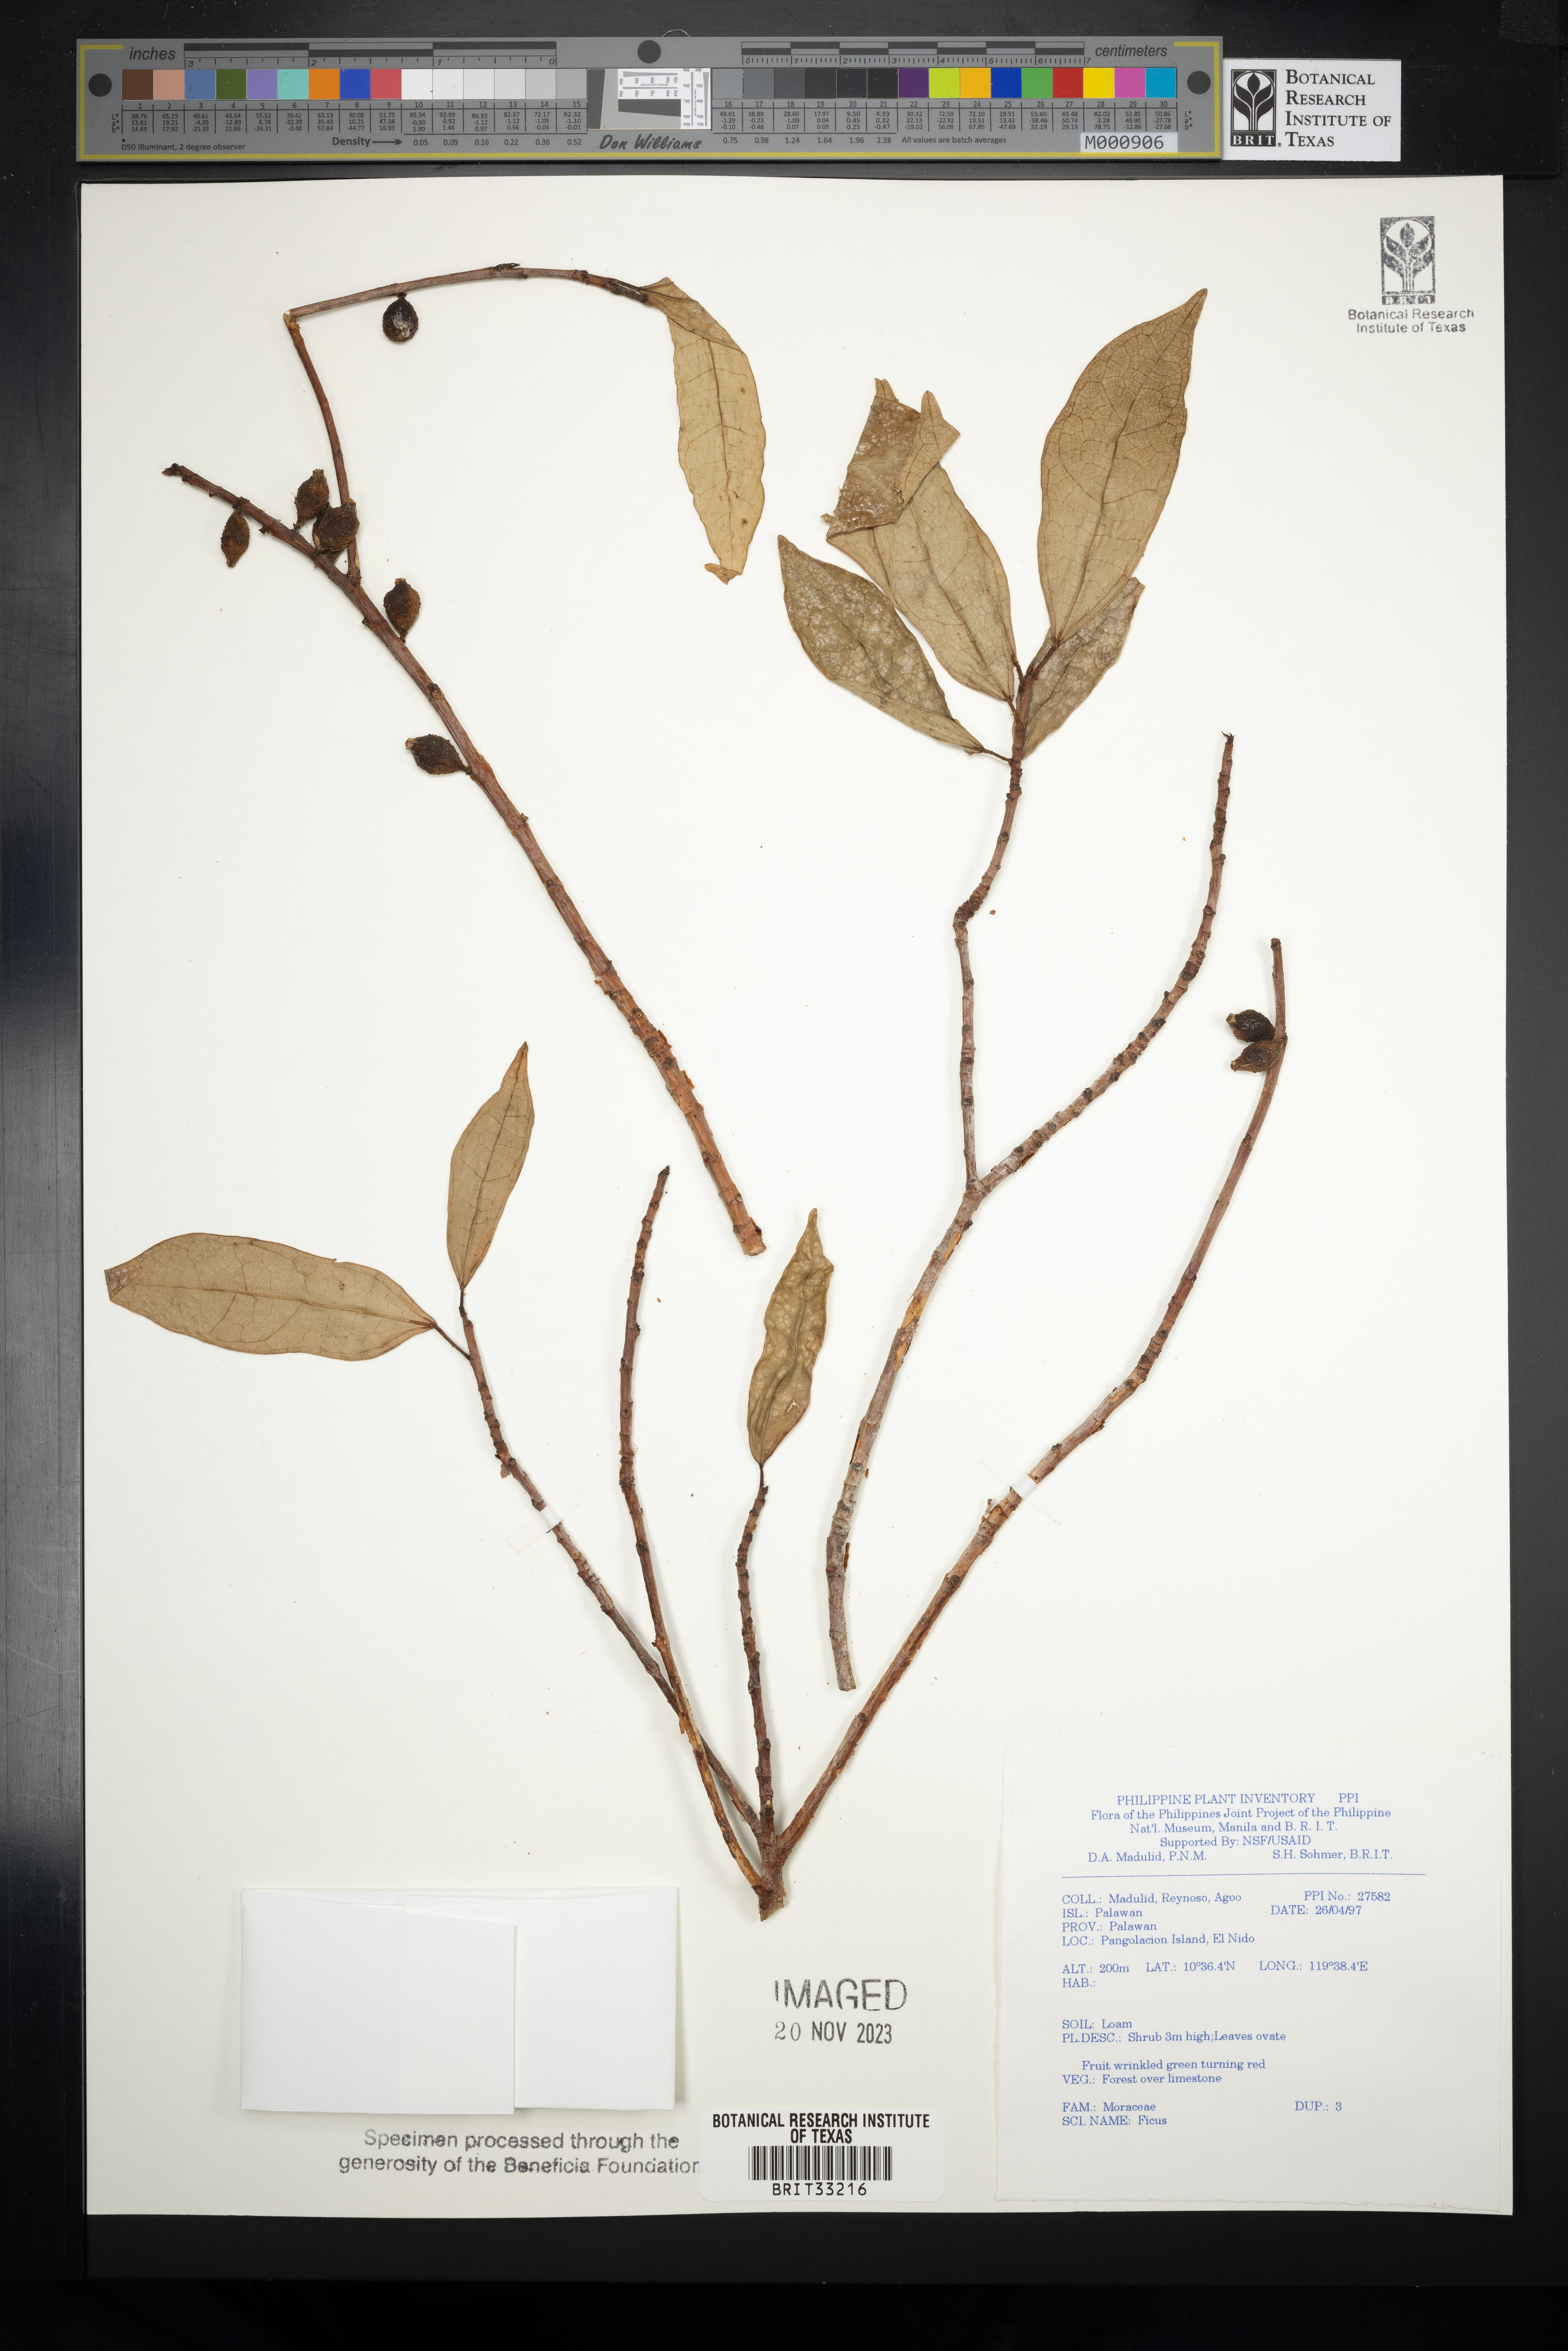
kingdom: Plantae
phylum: Tracheophyta
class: Magnoliopsida
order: Rosales
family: Moraceae
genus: Ficus
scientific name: Ficus
